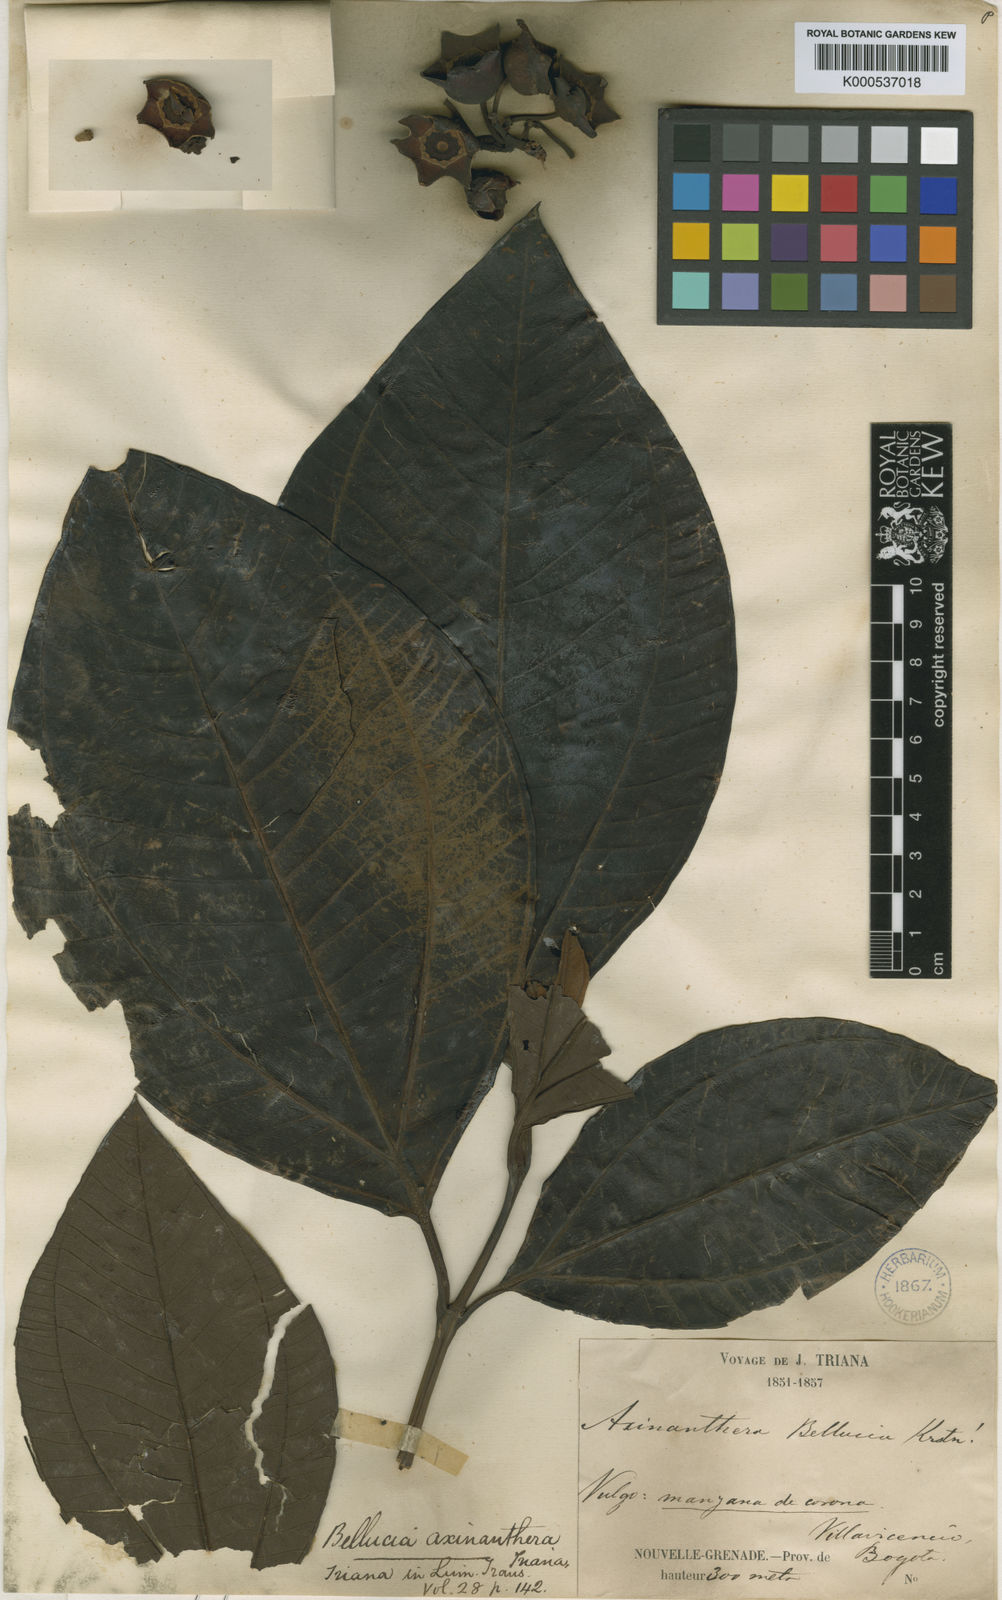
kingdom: Plantae
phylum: Tracheophyta
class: Magnoliopsida
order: Myrtales
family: Melastomataceae
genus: Bellucia
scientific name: Bellucia pentamera
